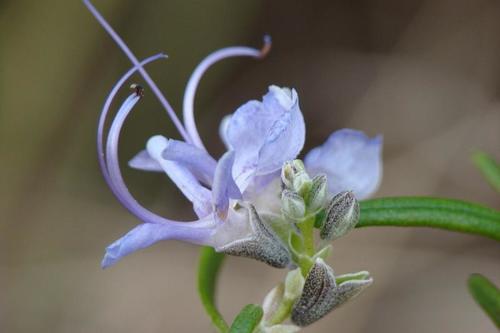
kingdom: Plantae
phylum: Tracheophyta
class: Magnoliopsida
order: Lamiales
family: Lamiaceae
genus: Salvia
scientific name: Salvia rosmarinus
